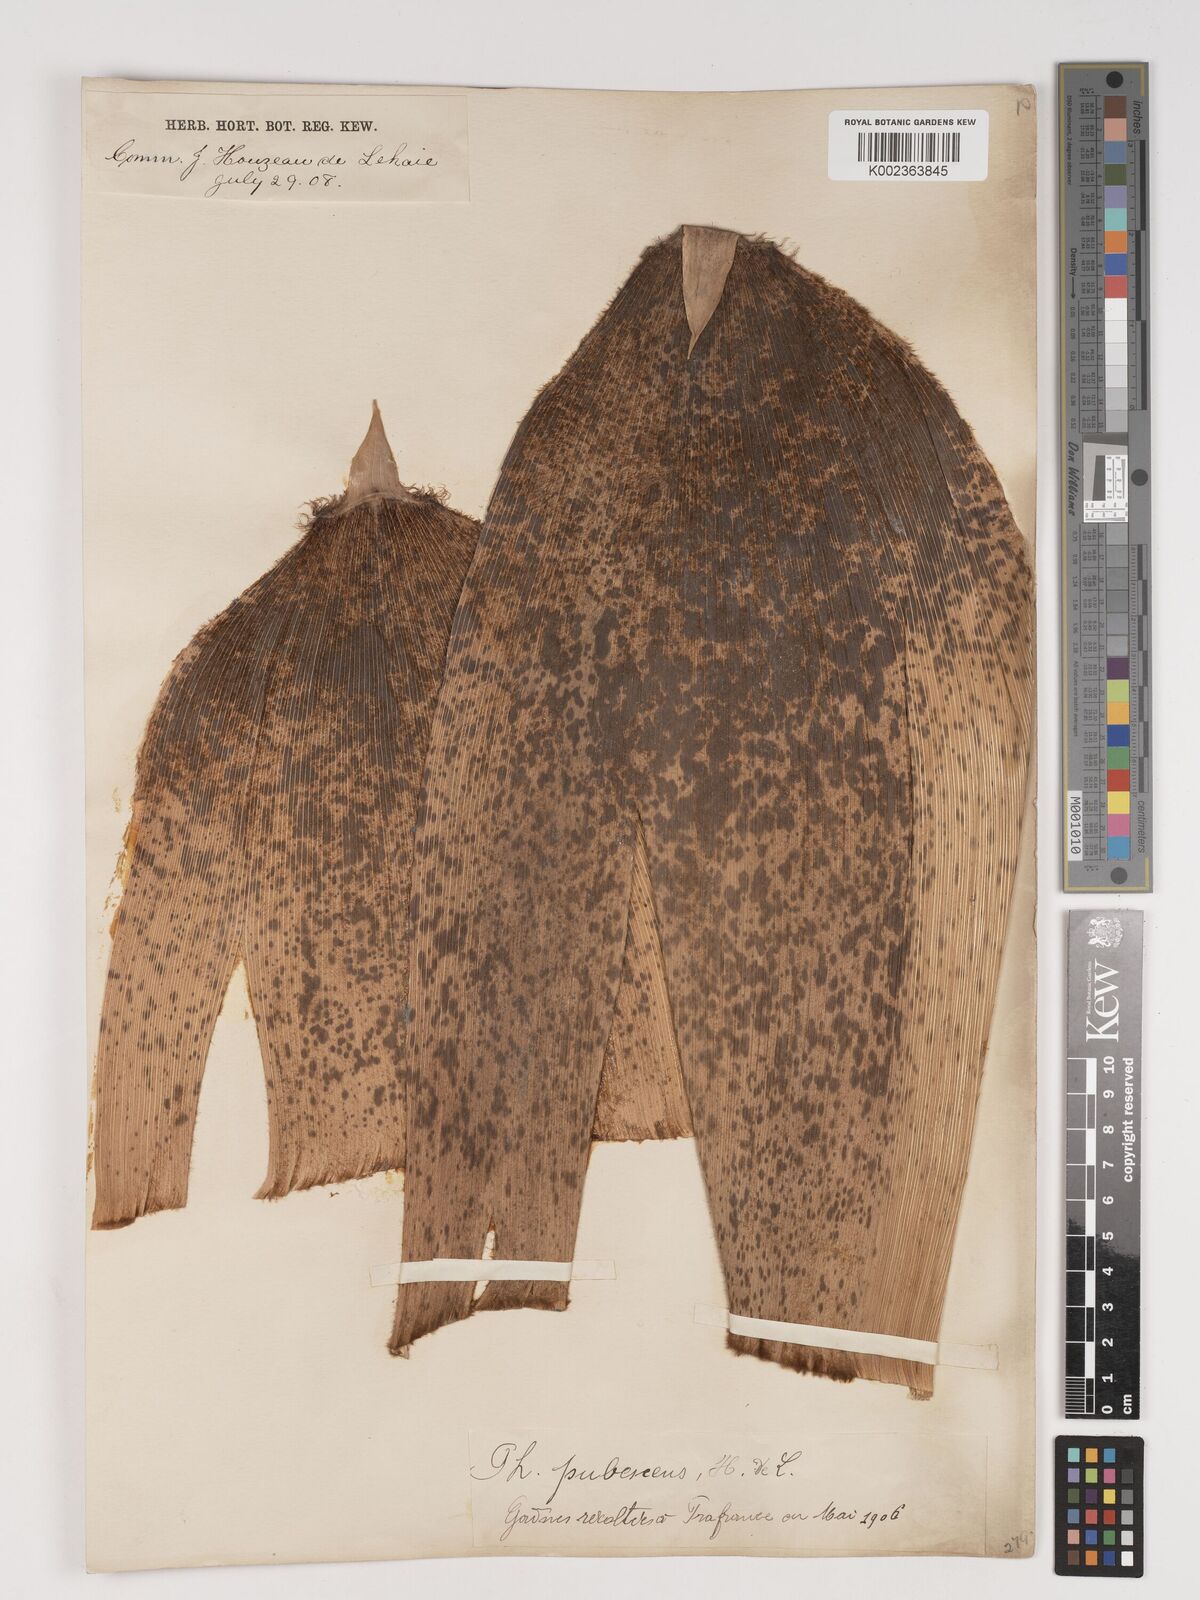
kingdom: Plantae
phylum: Tracheophyta
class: Liliopsida
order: Poales
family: Poaceae
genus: Phyllostachys
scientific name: Phyllostachys edulis
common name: Tortoise shell bamboo
